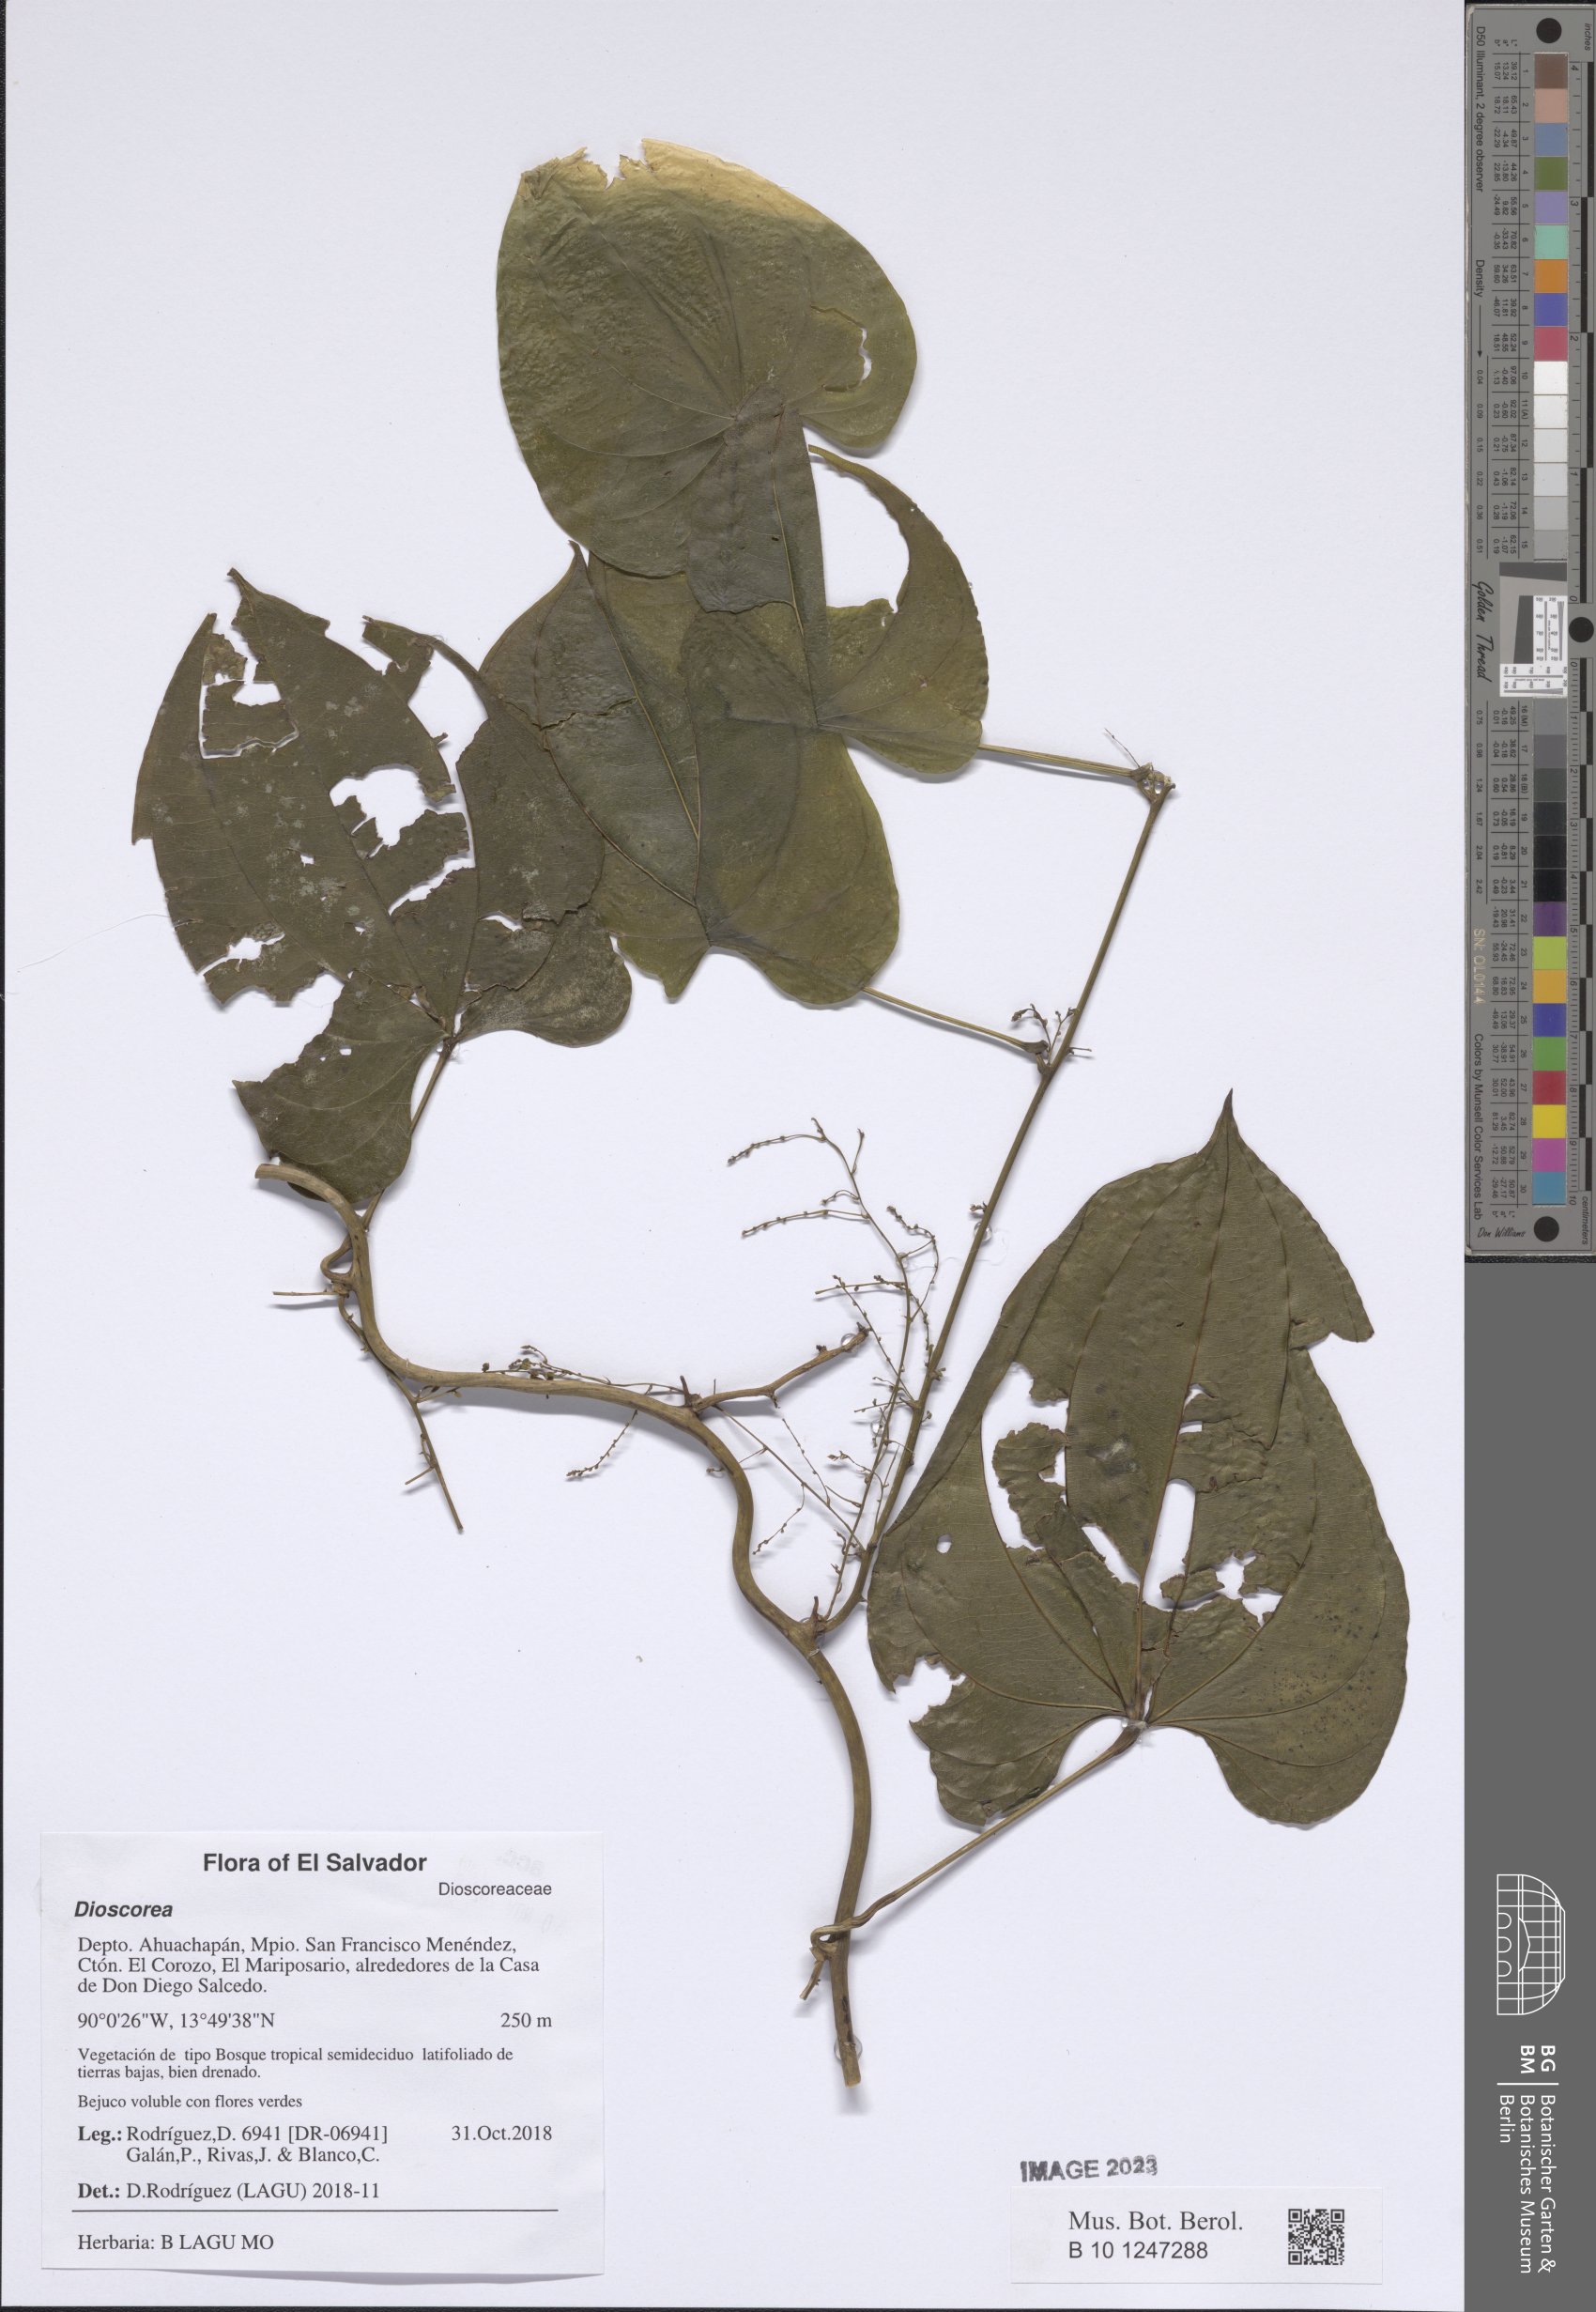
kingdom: Plantae
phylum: Tracheophyta
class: Liliopsida
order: Dioscoreales
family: Dioscoreaceae
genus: Dioscorea
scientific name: Dioscorea
